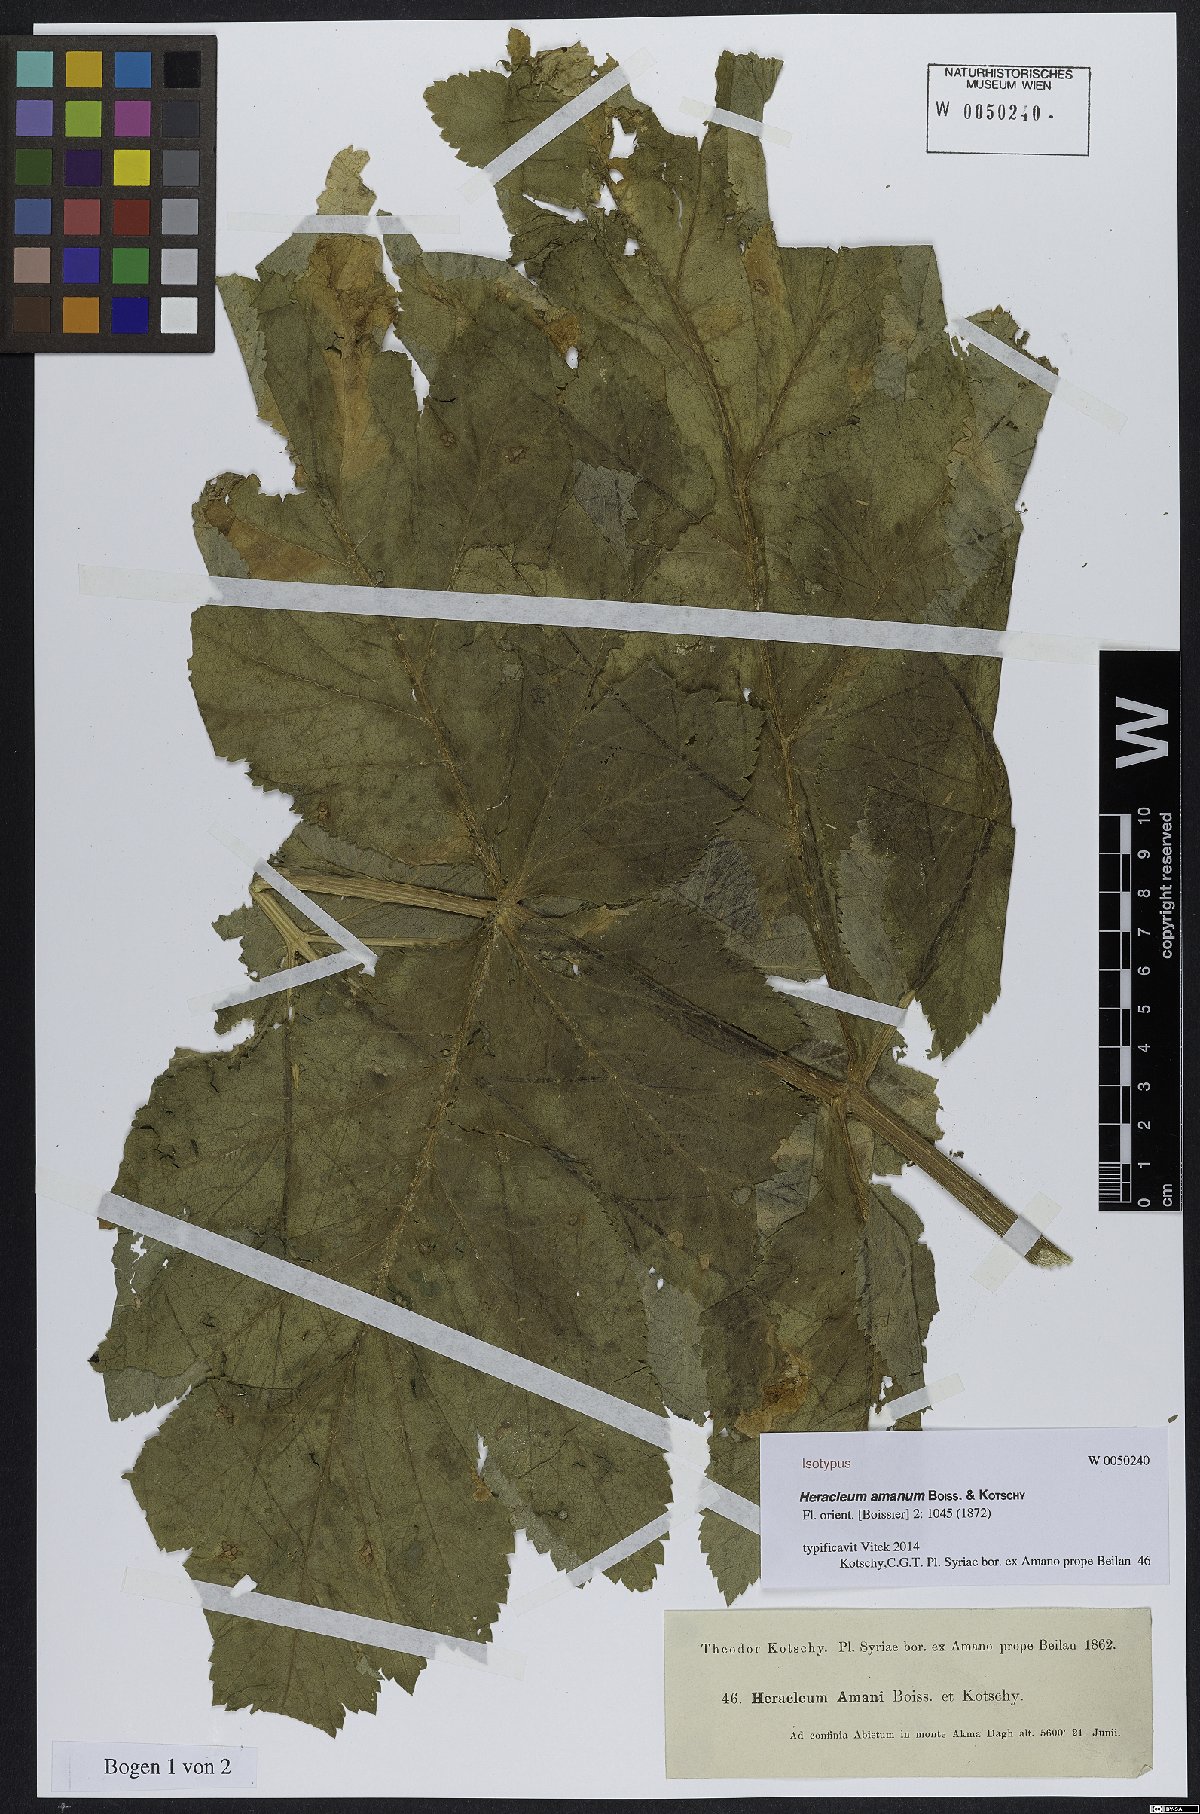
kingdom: Plantae
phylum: Tracheophyta
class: Magnoliopsida
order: Apiales
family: Apiaceae
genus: Heracleum
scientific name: Heracleum amanum
